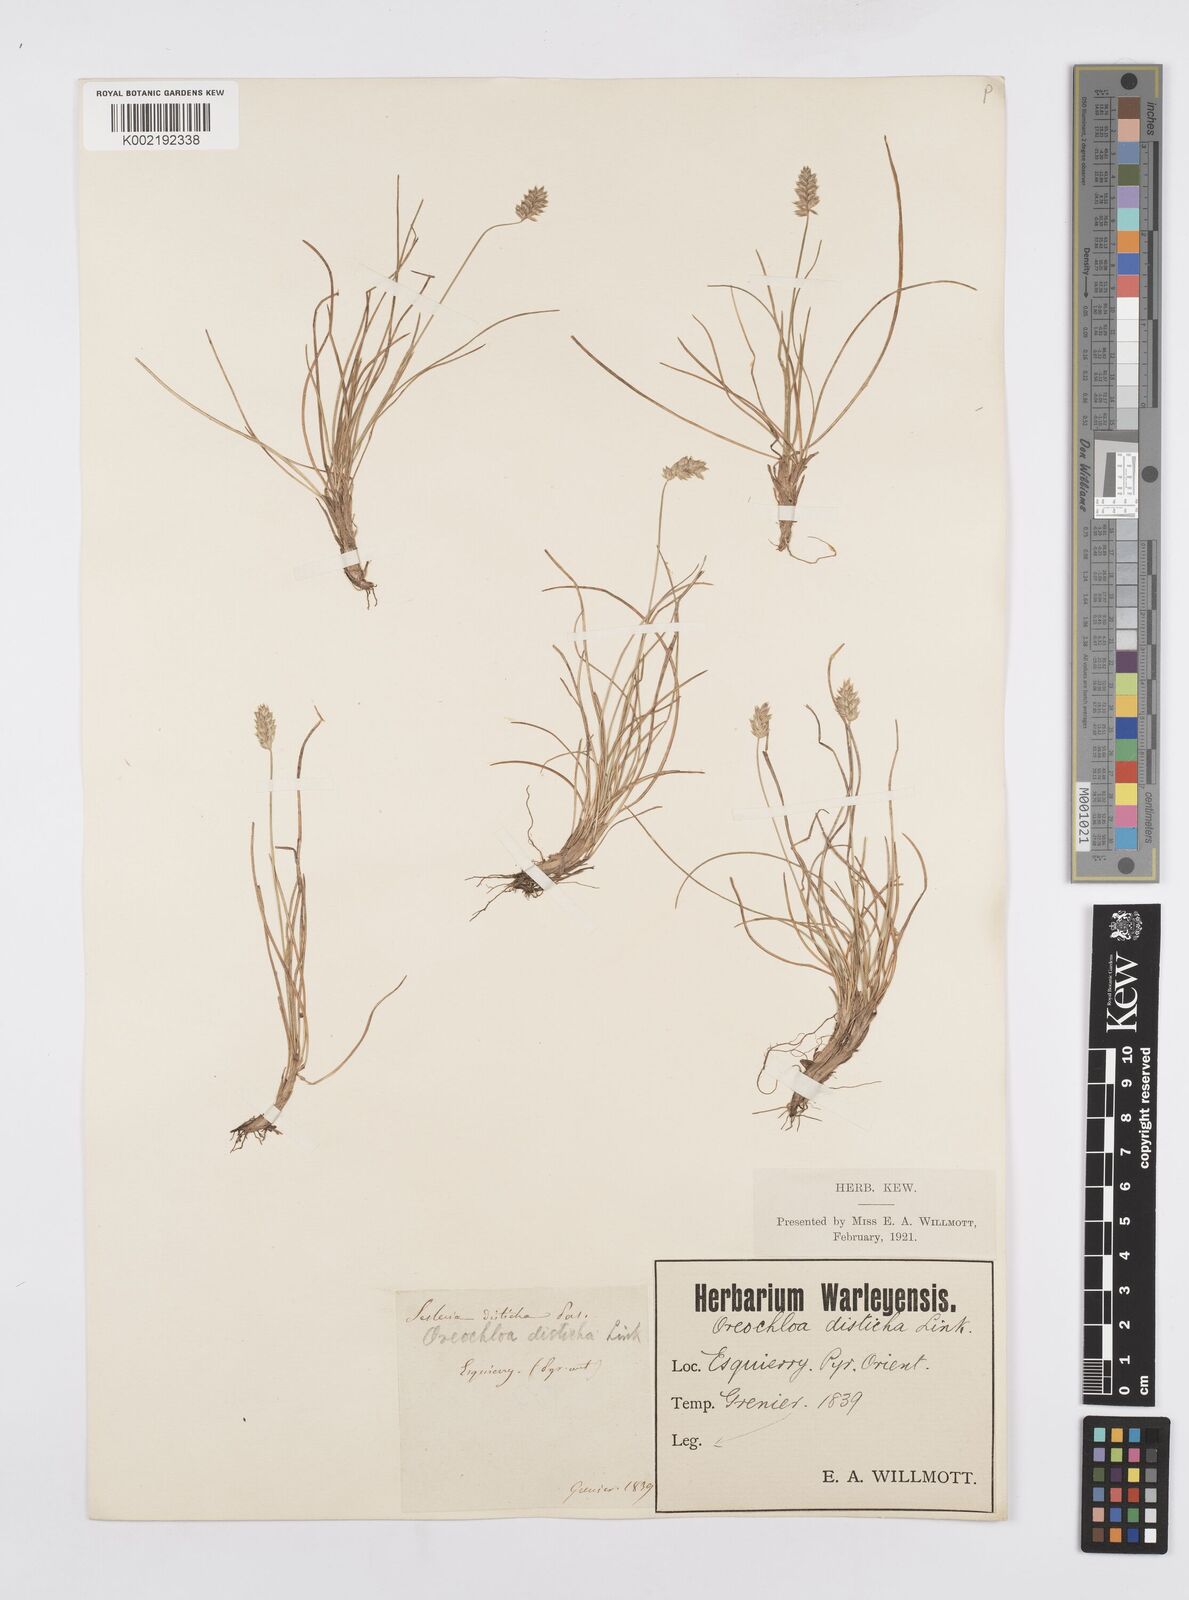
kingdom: Plantae
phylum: Tracheophyta
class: Liliopsida
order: Poales
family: Poaceae
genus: Oreochloa
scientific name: Oreochloa elegans
